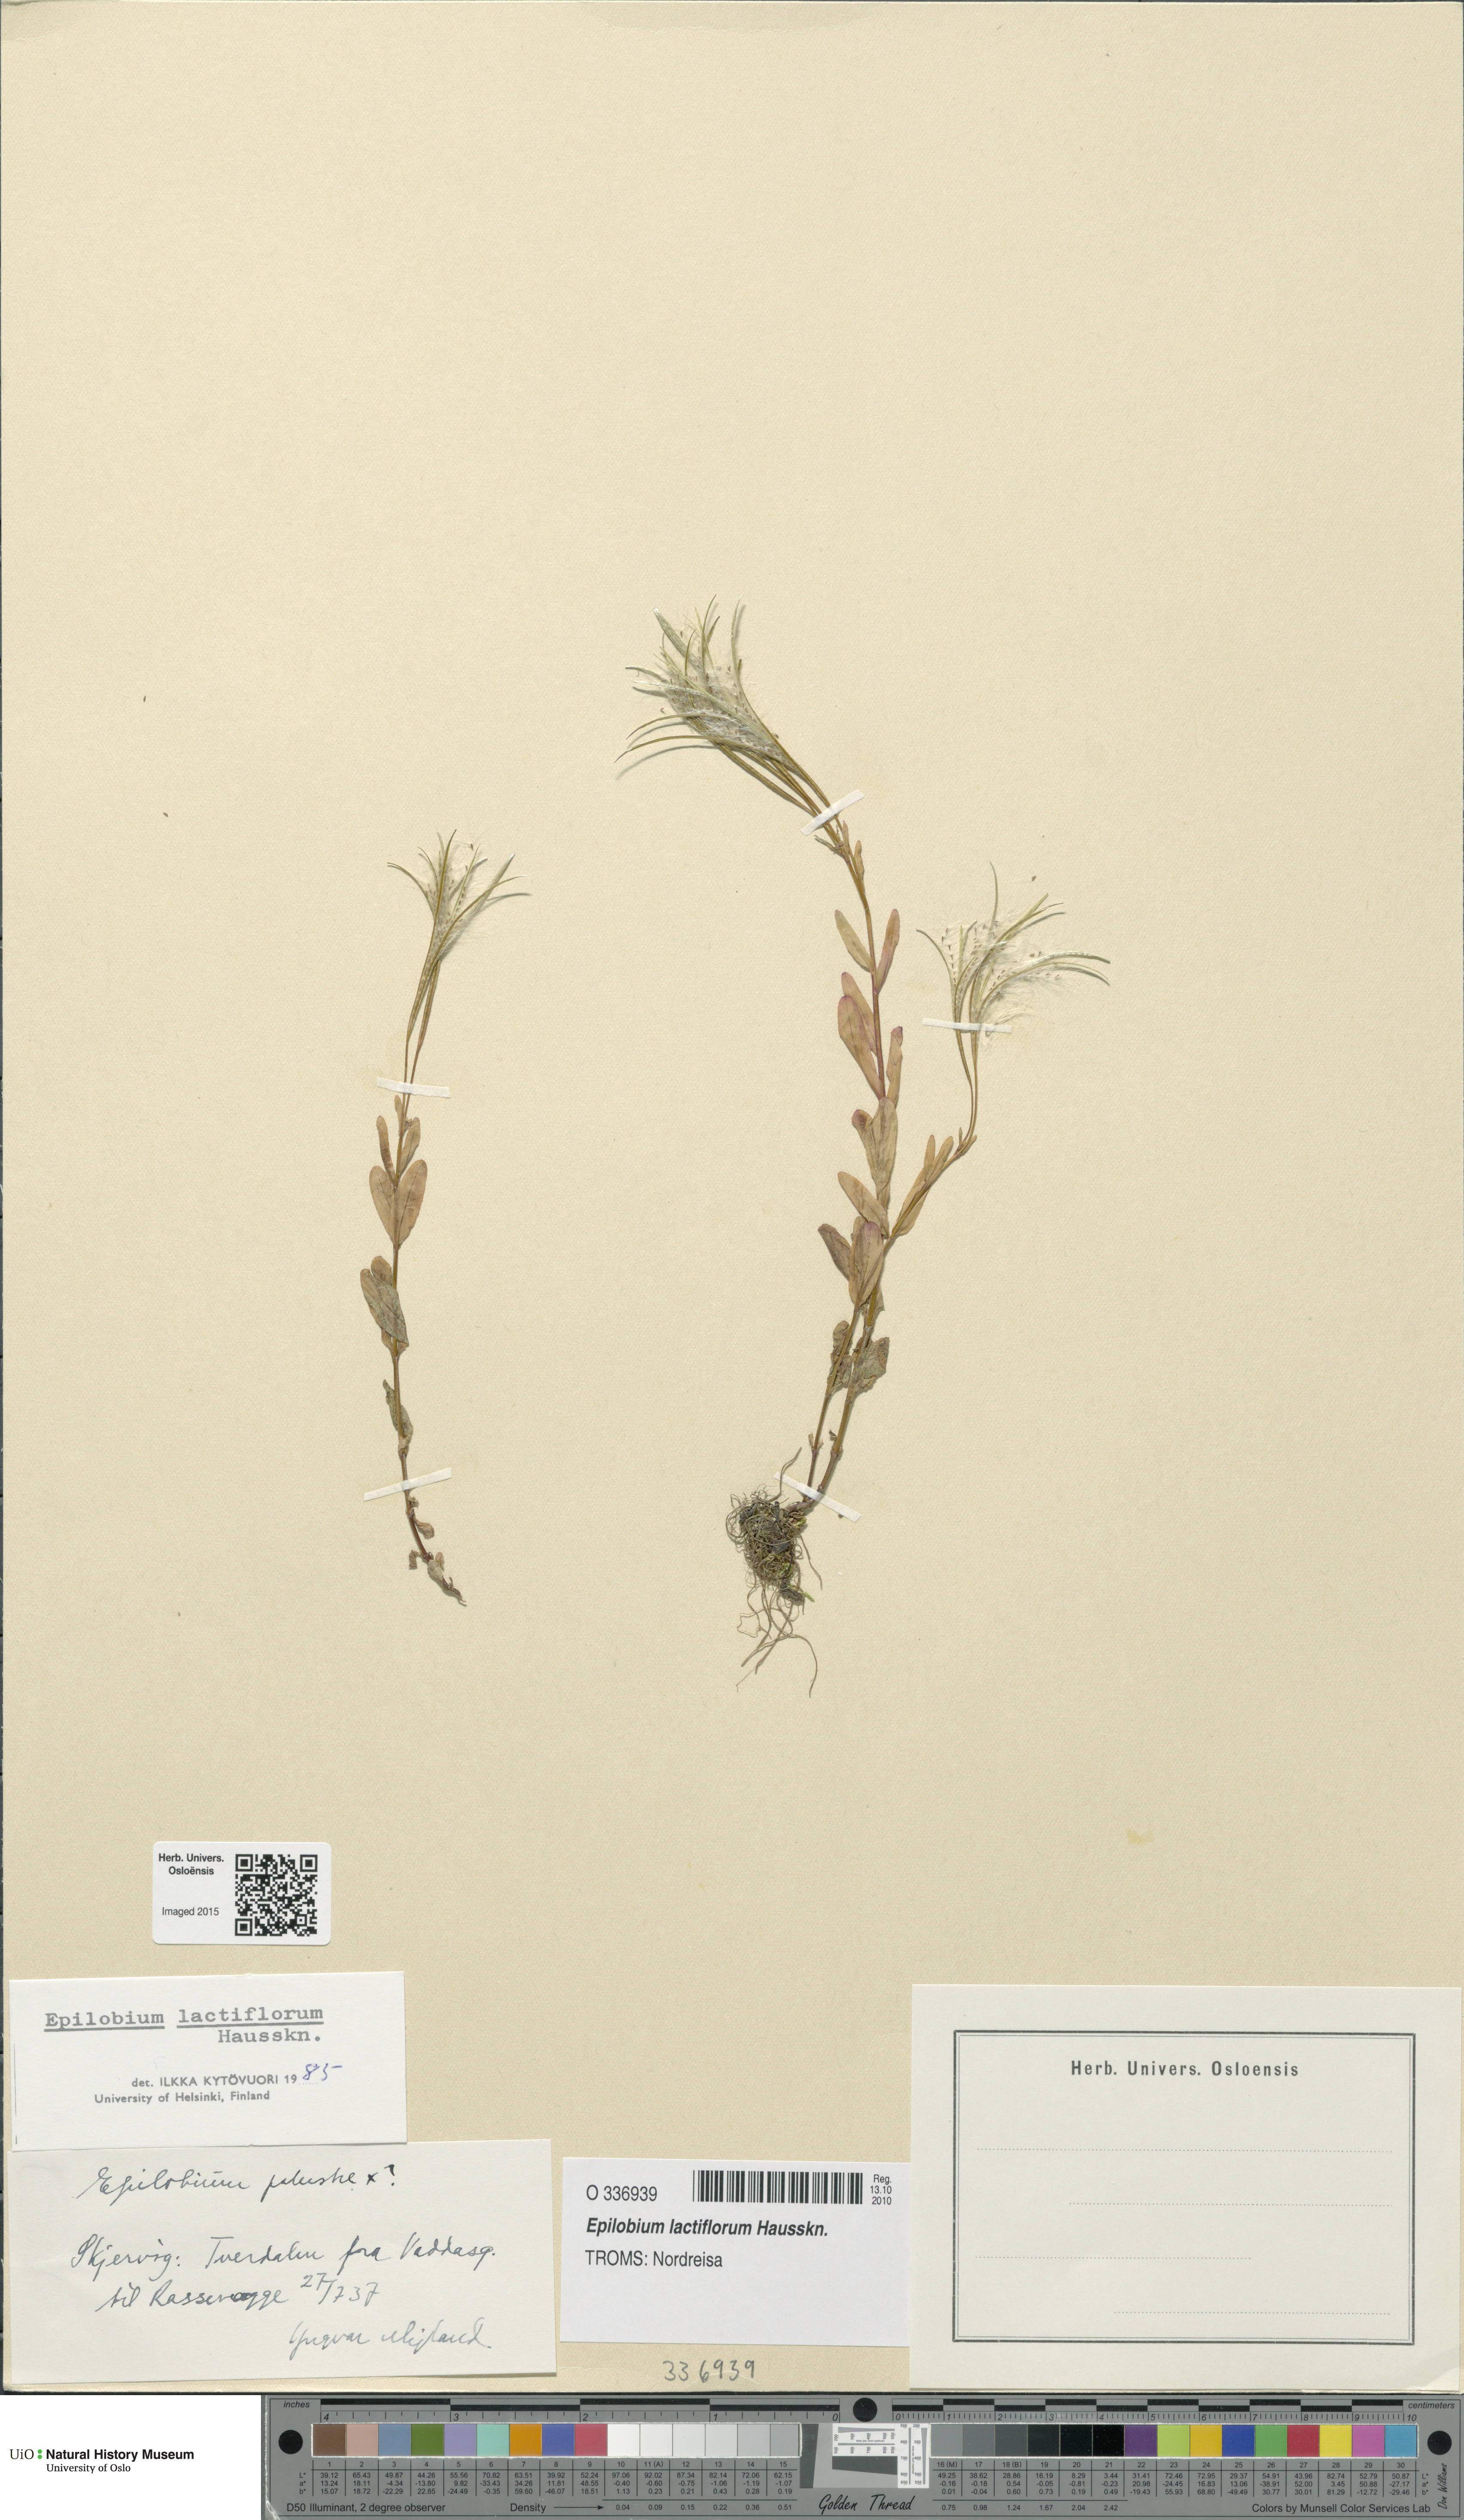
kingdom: Plantae
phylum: Tracheophyta
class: Magnoliopsida
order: Myrtales
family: Onagraceae
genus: Epilobium
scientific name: Epilobium lactiflorum
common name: Milkflower willowherb
